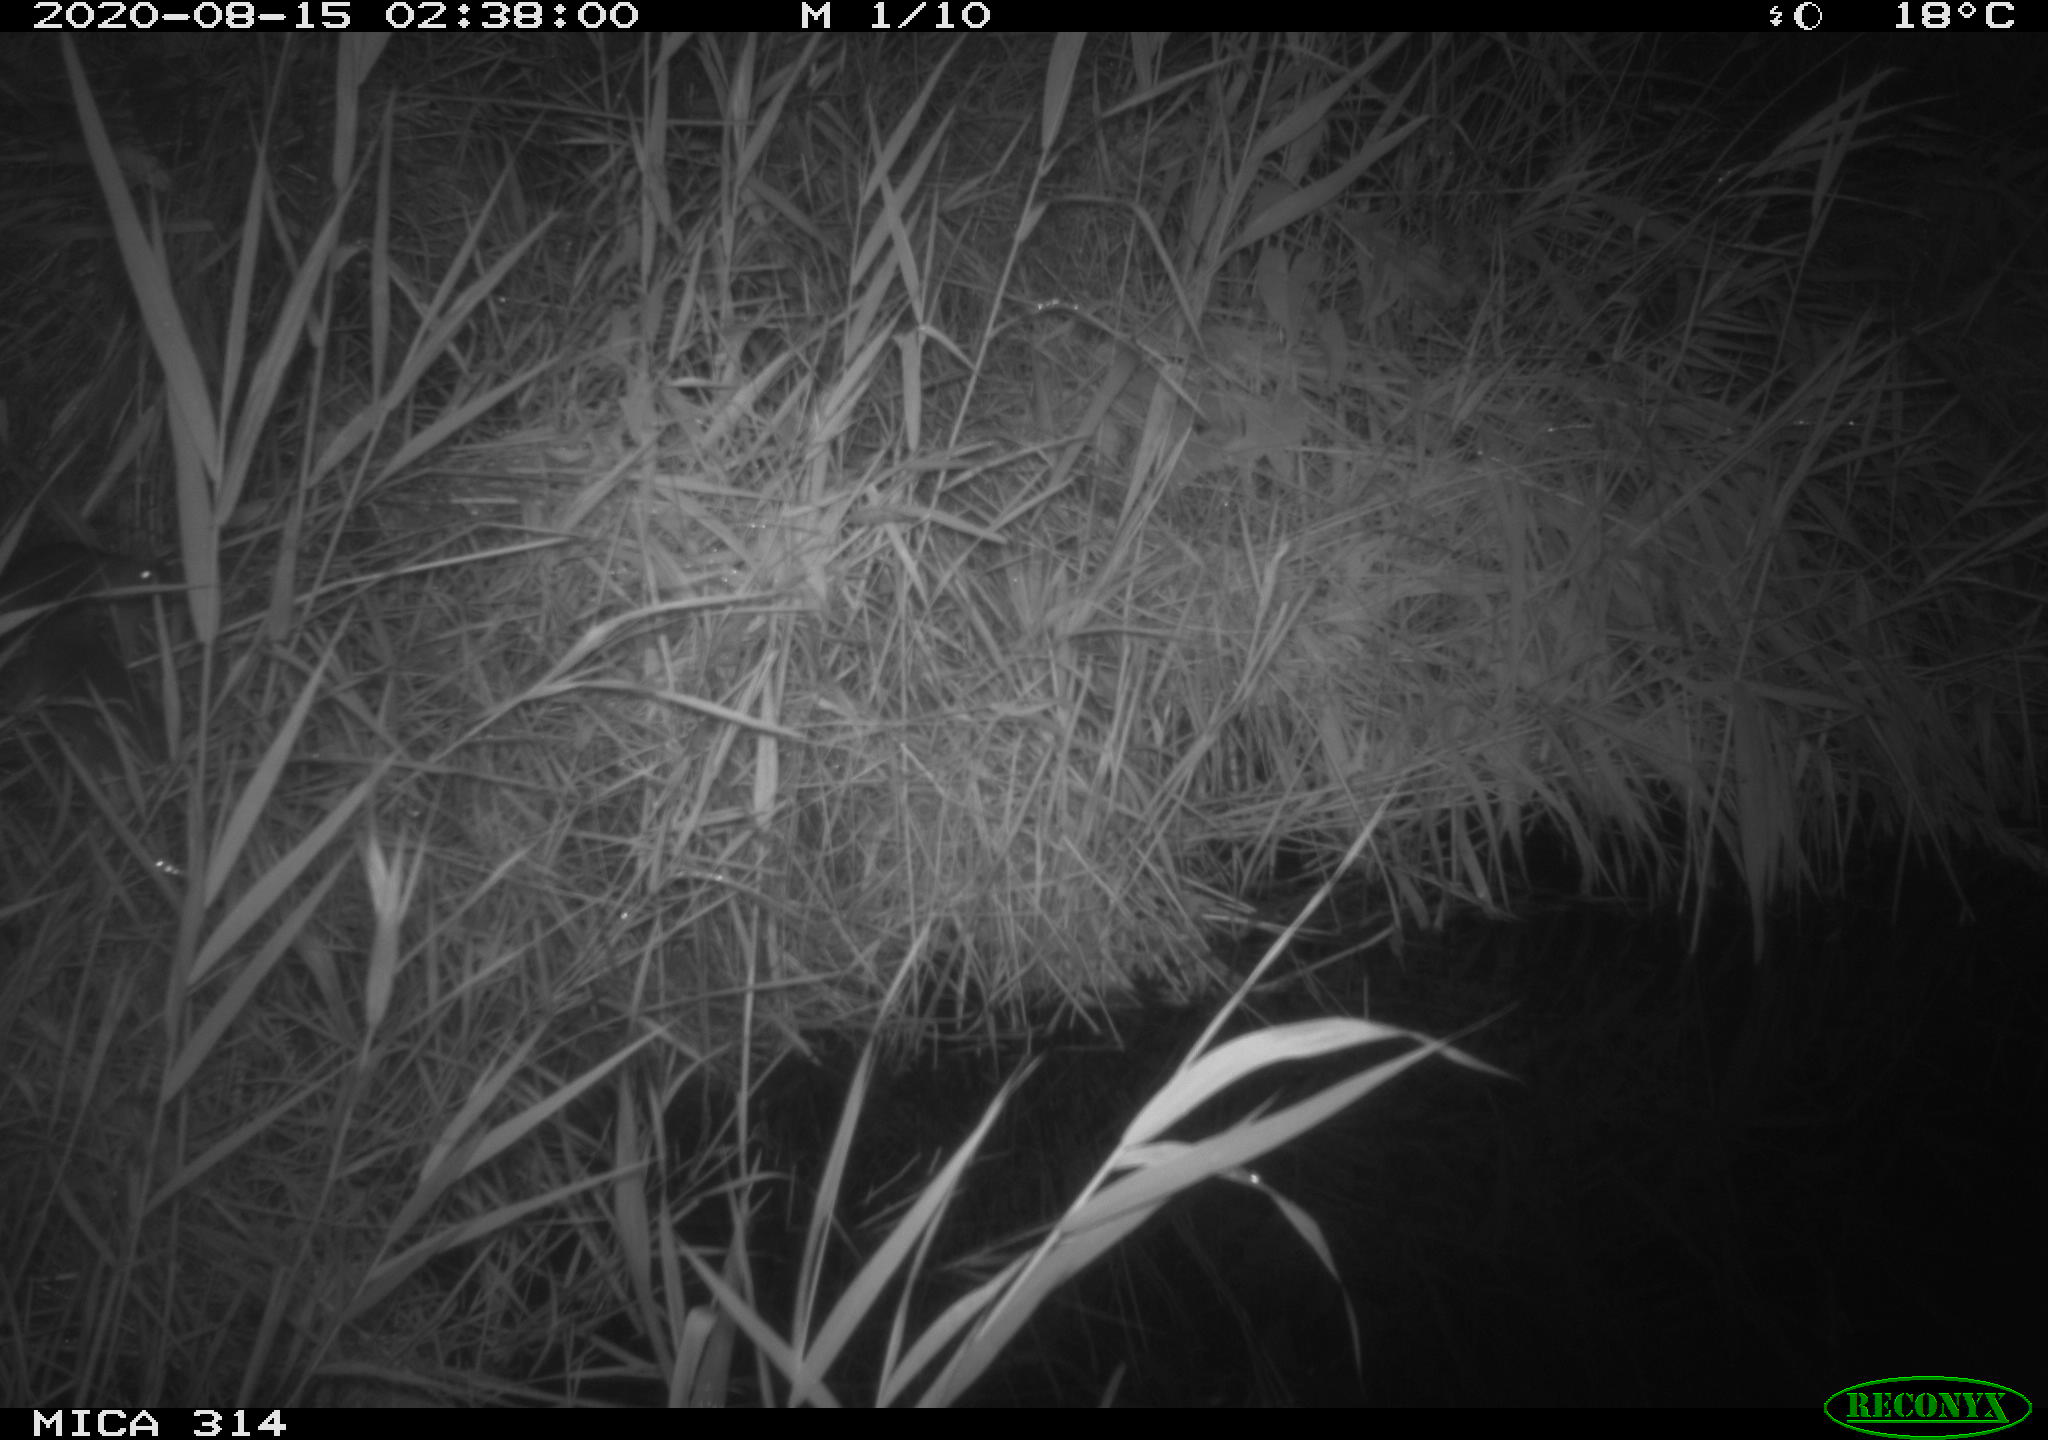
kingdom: Animalia
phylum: Chordata
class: Mammalia
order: Rodentia
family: Muridae
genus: Rattus
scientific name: Rattus norvegicus
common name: Brown rat
